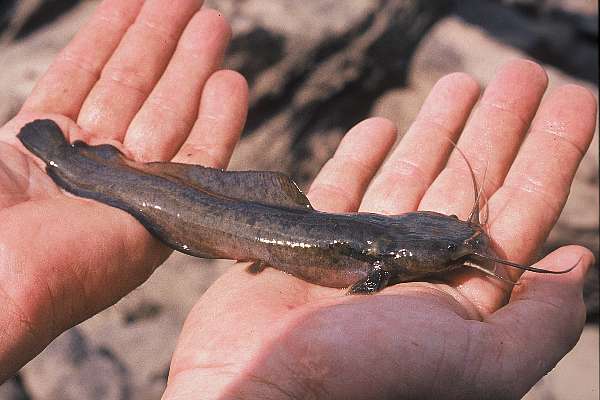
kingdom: Animalia
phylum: Chordata
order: Siluriformes
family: Clariidae
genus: Clariallabes
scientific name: Clariallabes
